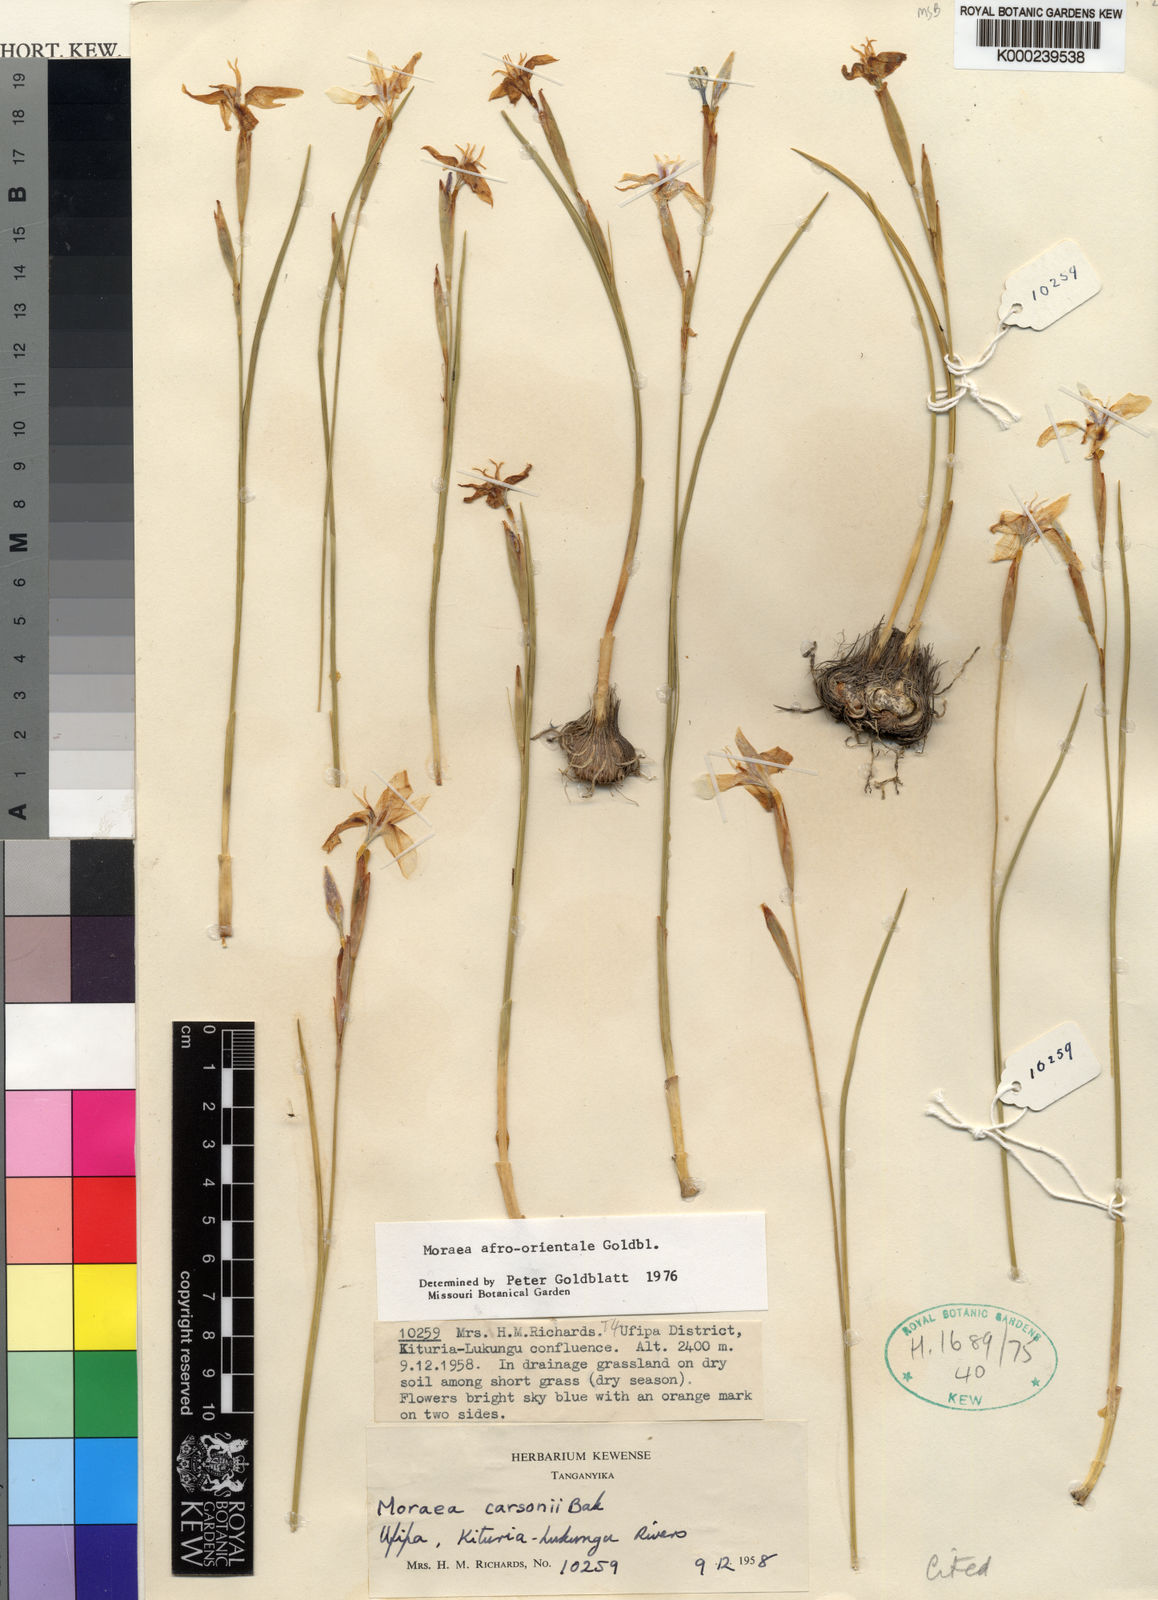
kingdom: Plantae
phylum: Tracheophyta
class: Liliopsida
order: Asparagales
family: Iridaceae
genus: Moraea
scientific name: Moraea
